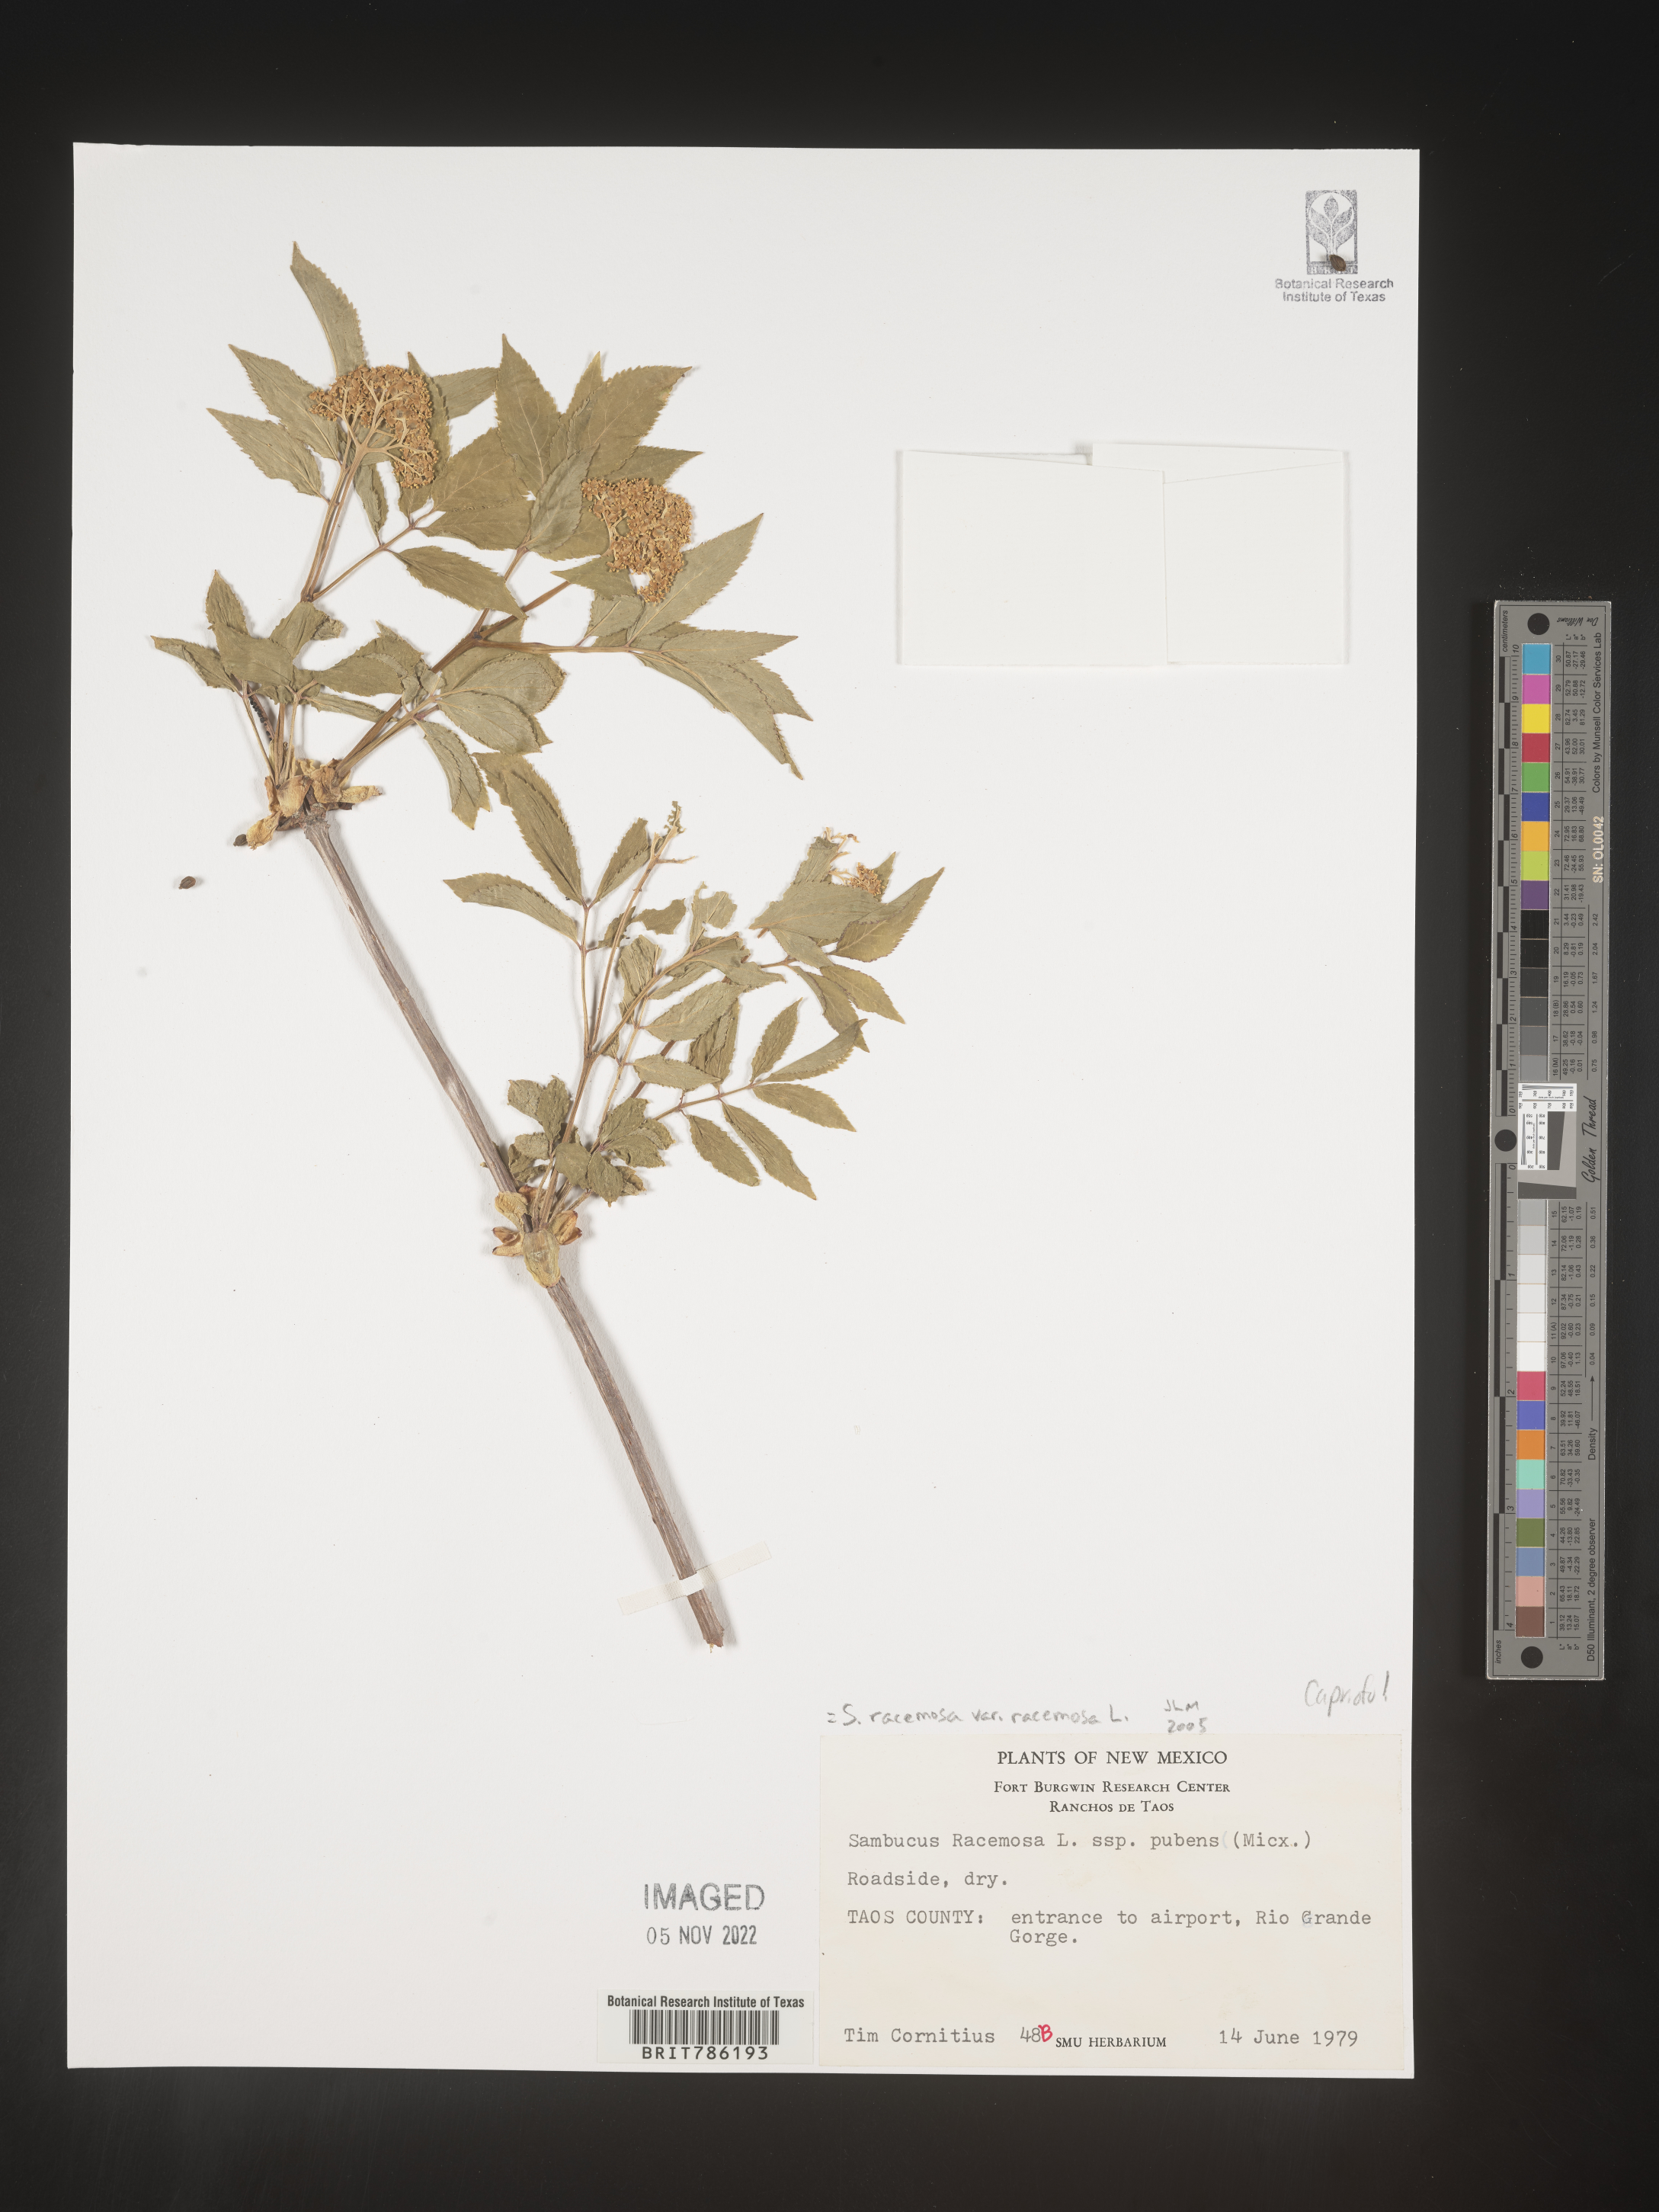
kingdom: Plantae
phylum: Tracheophyta
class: Magnoliopsida
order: Dipsacales
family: Viburnaceae
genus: Sambucus
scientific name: Sambucus
